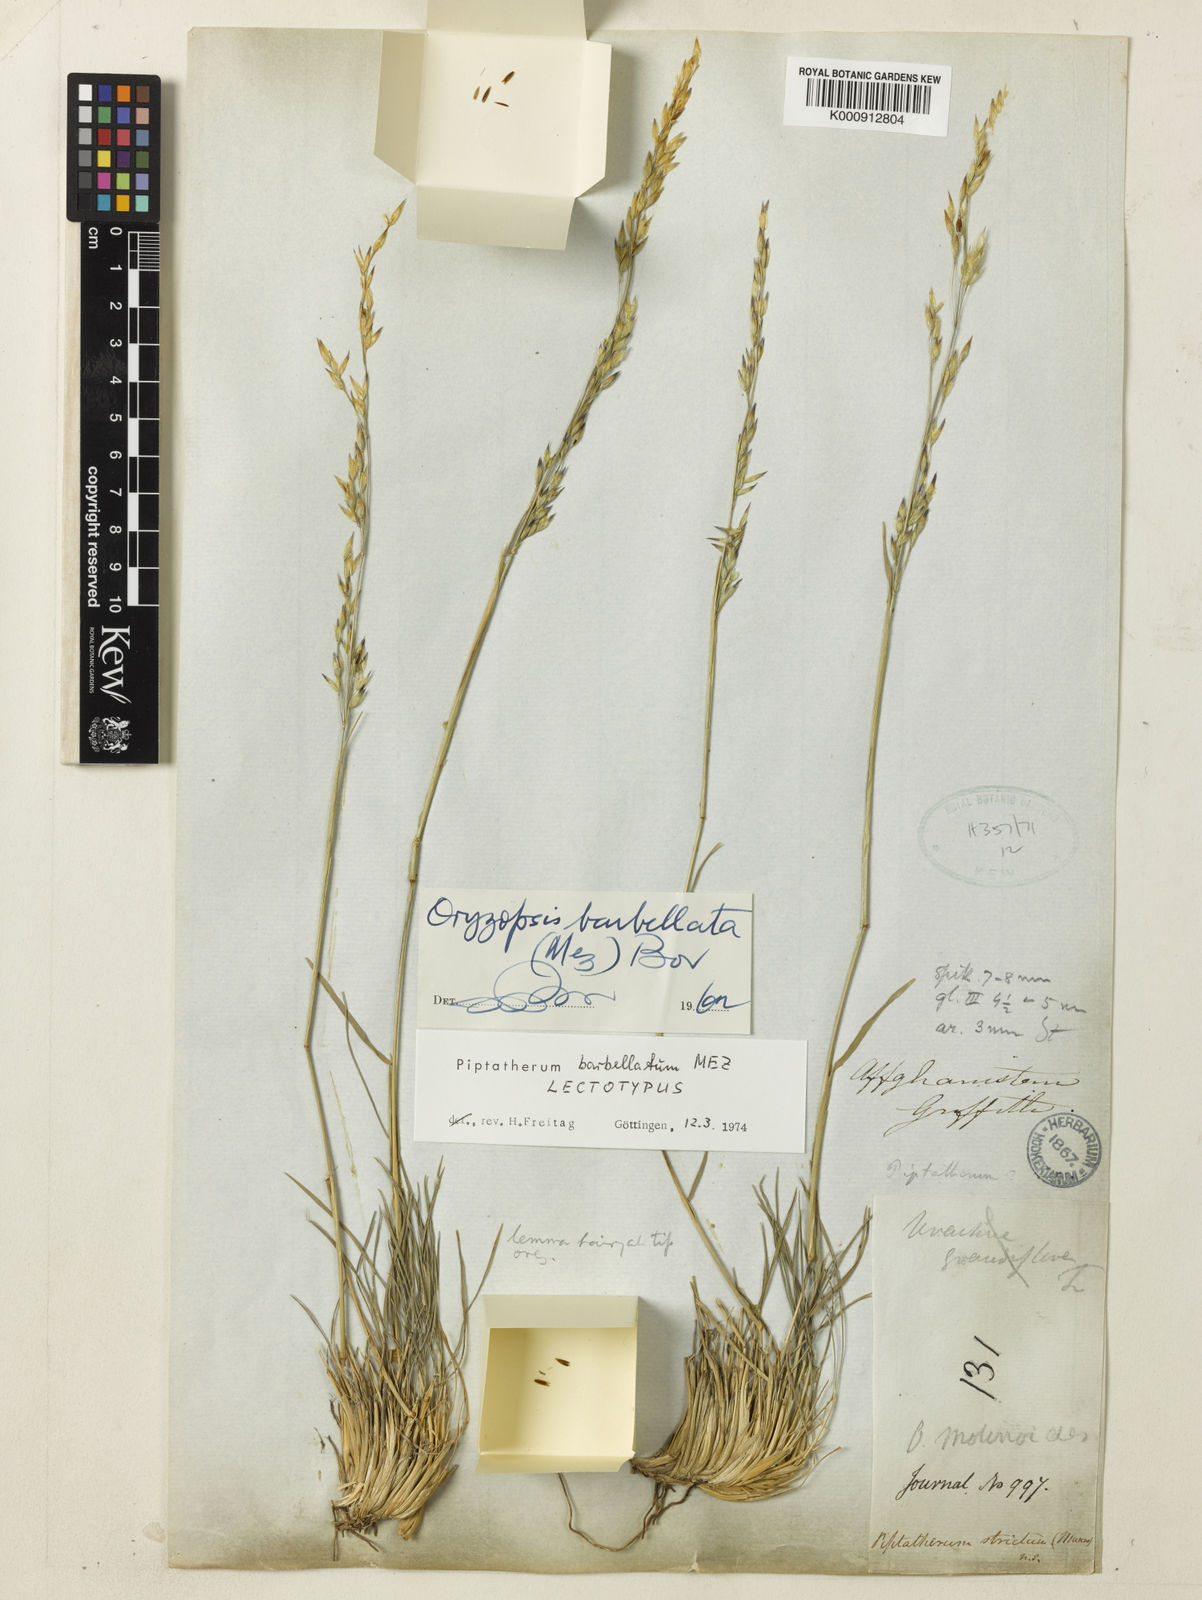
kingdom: Plantae
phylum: Tracheophyta
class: Liliopsida
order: Poales
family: Poaceae
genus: Piptatherum
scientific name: Piptatherum barbellatum
